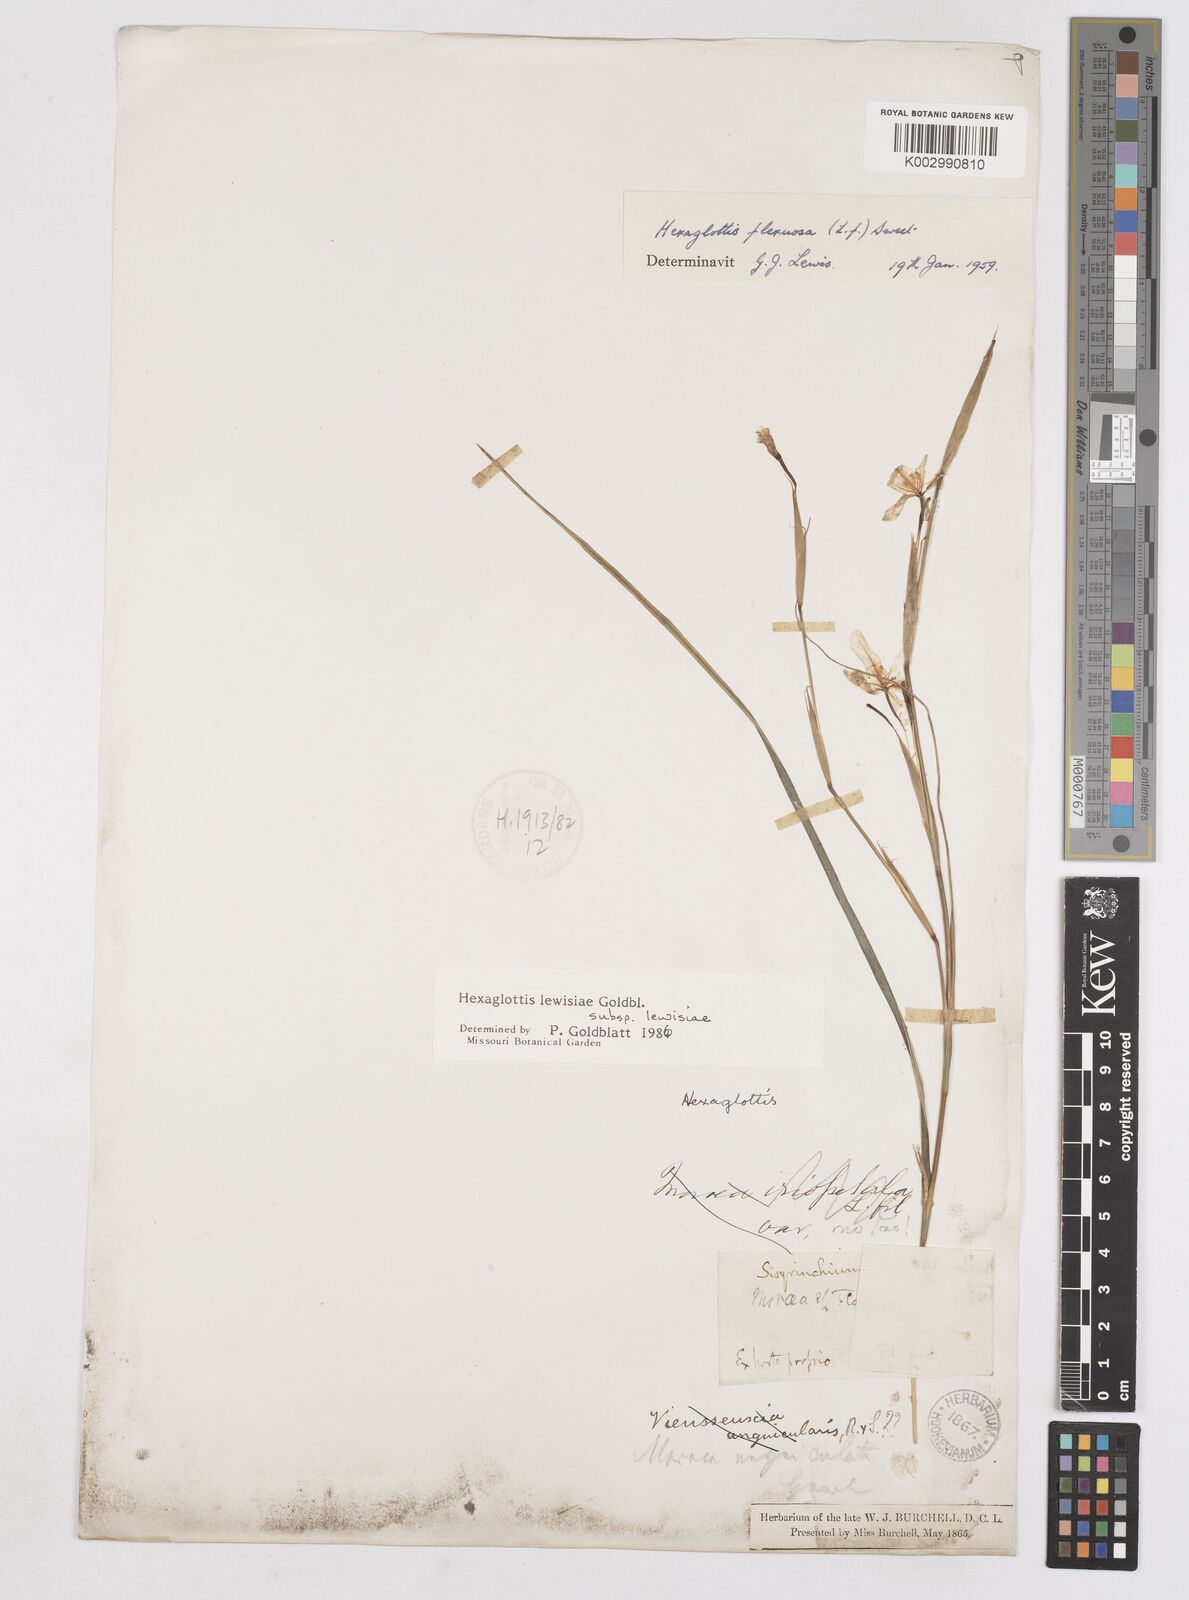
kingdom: Plantae
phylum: Tracheophyta
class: Liliopsida
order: Asparagales
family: Iridaceae
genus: Moraea
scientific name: Moraea lewisiae
